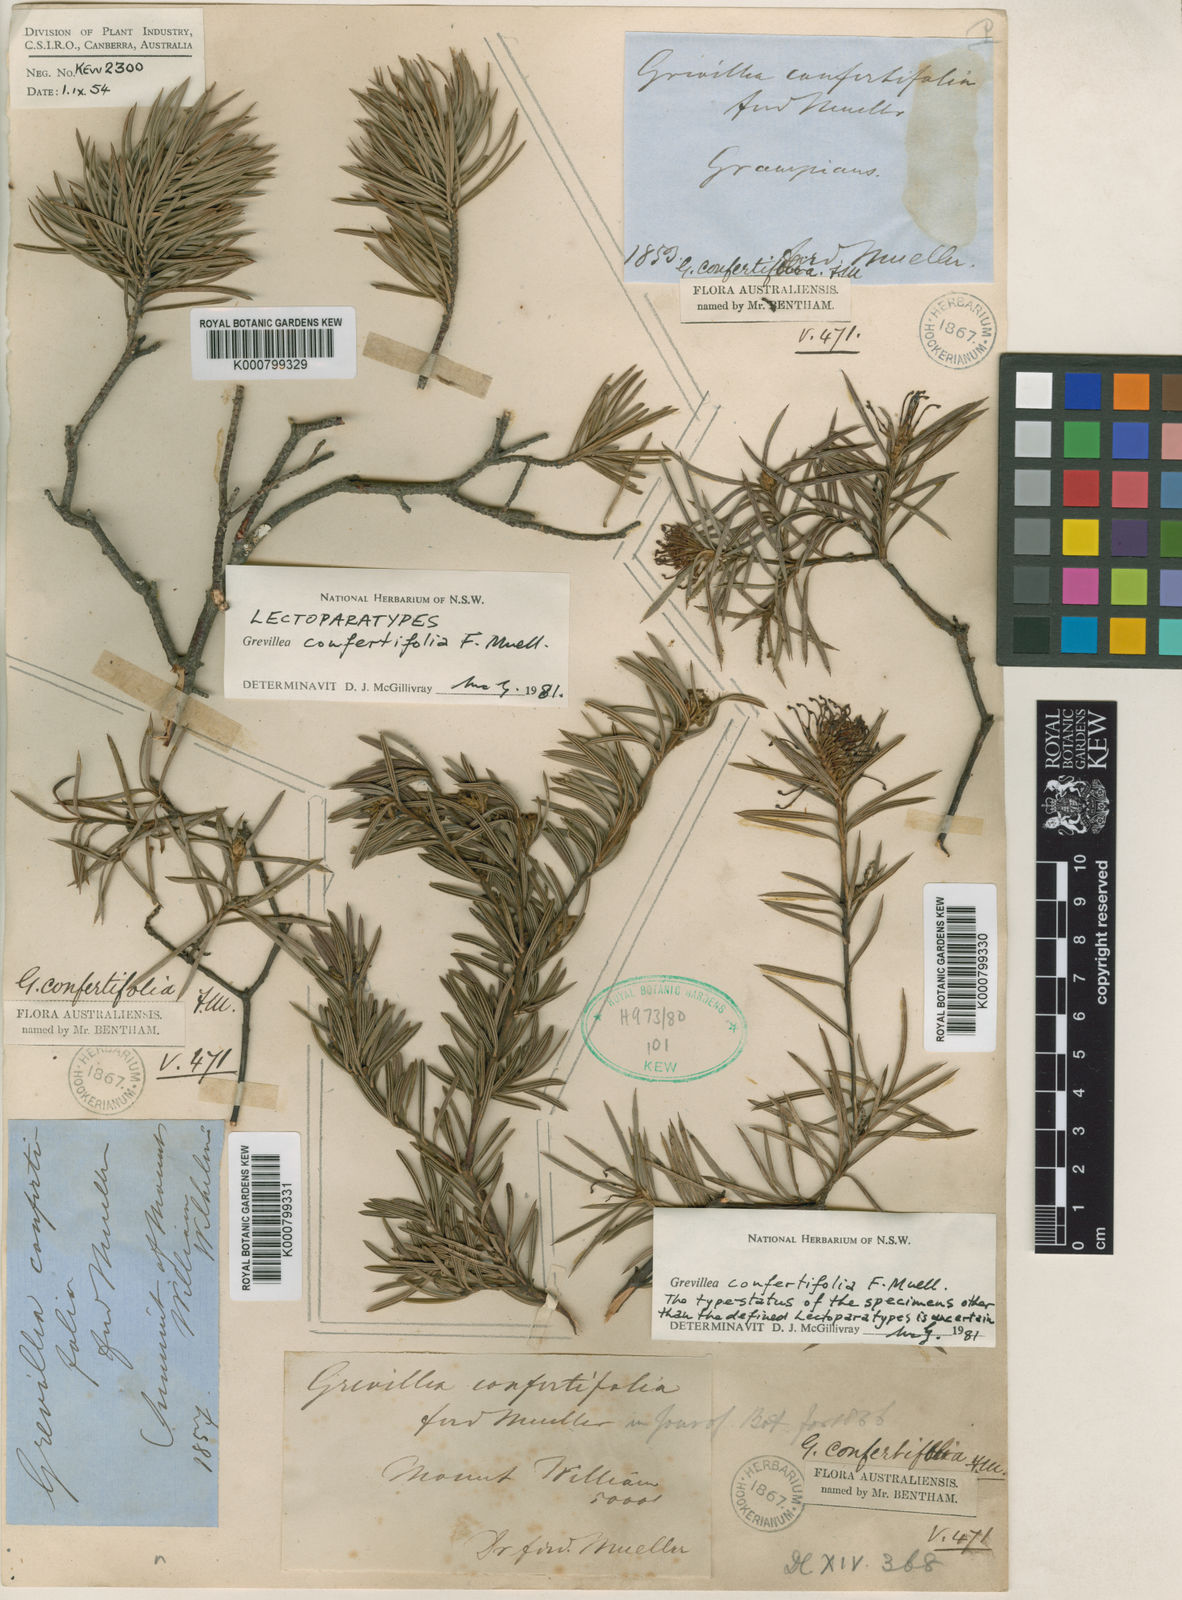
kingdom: Plantae
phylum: Tracheophyta
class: Magnoliopsida
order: Proteales
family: Proteaceae
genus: Grevillea
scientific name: Grevillea confertifolia
